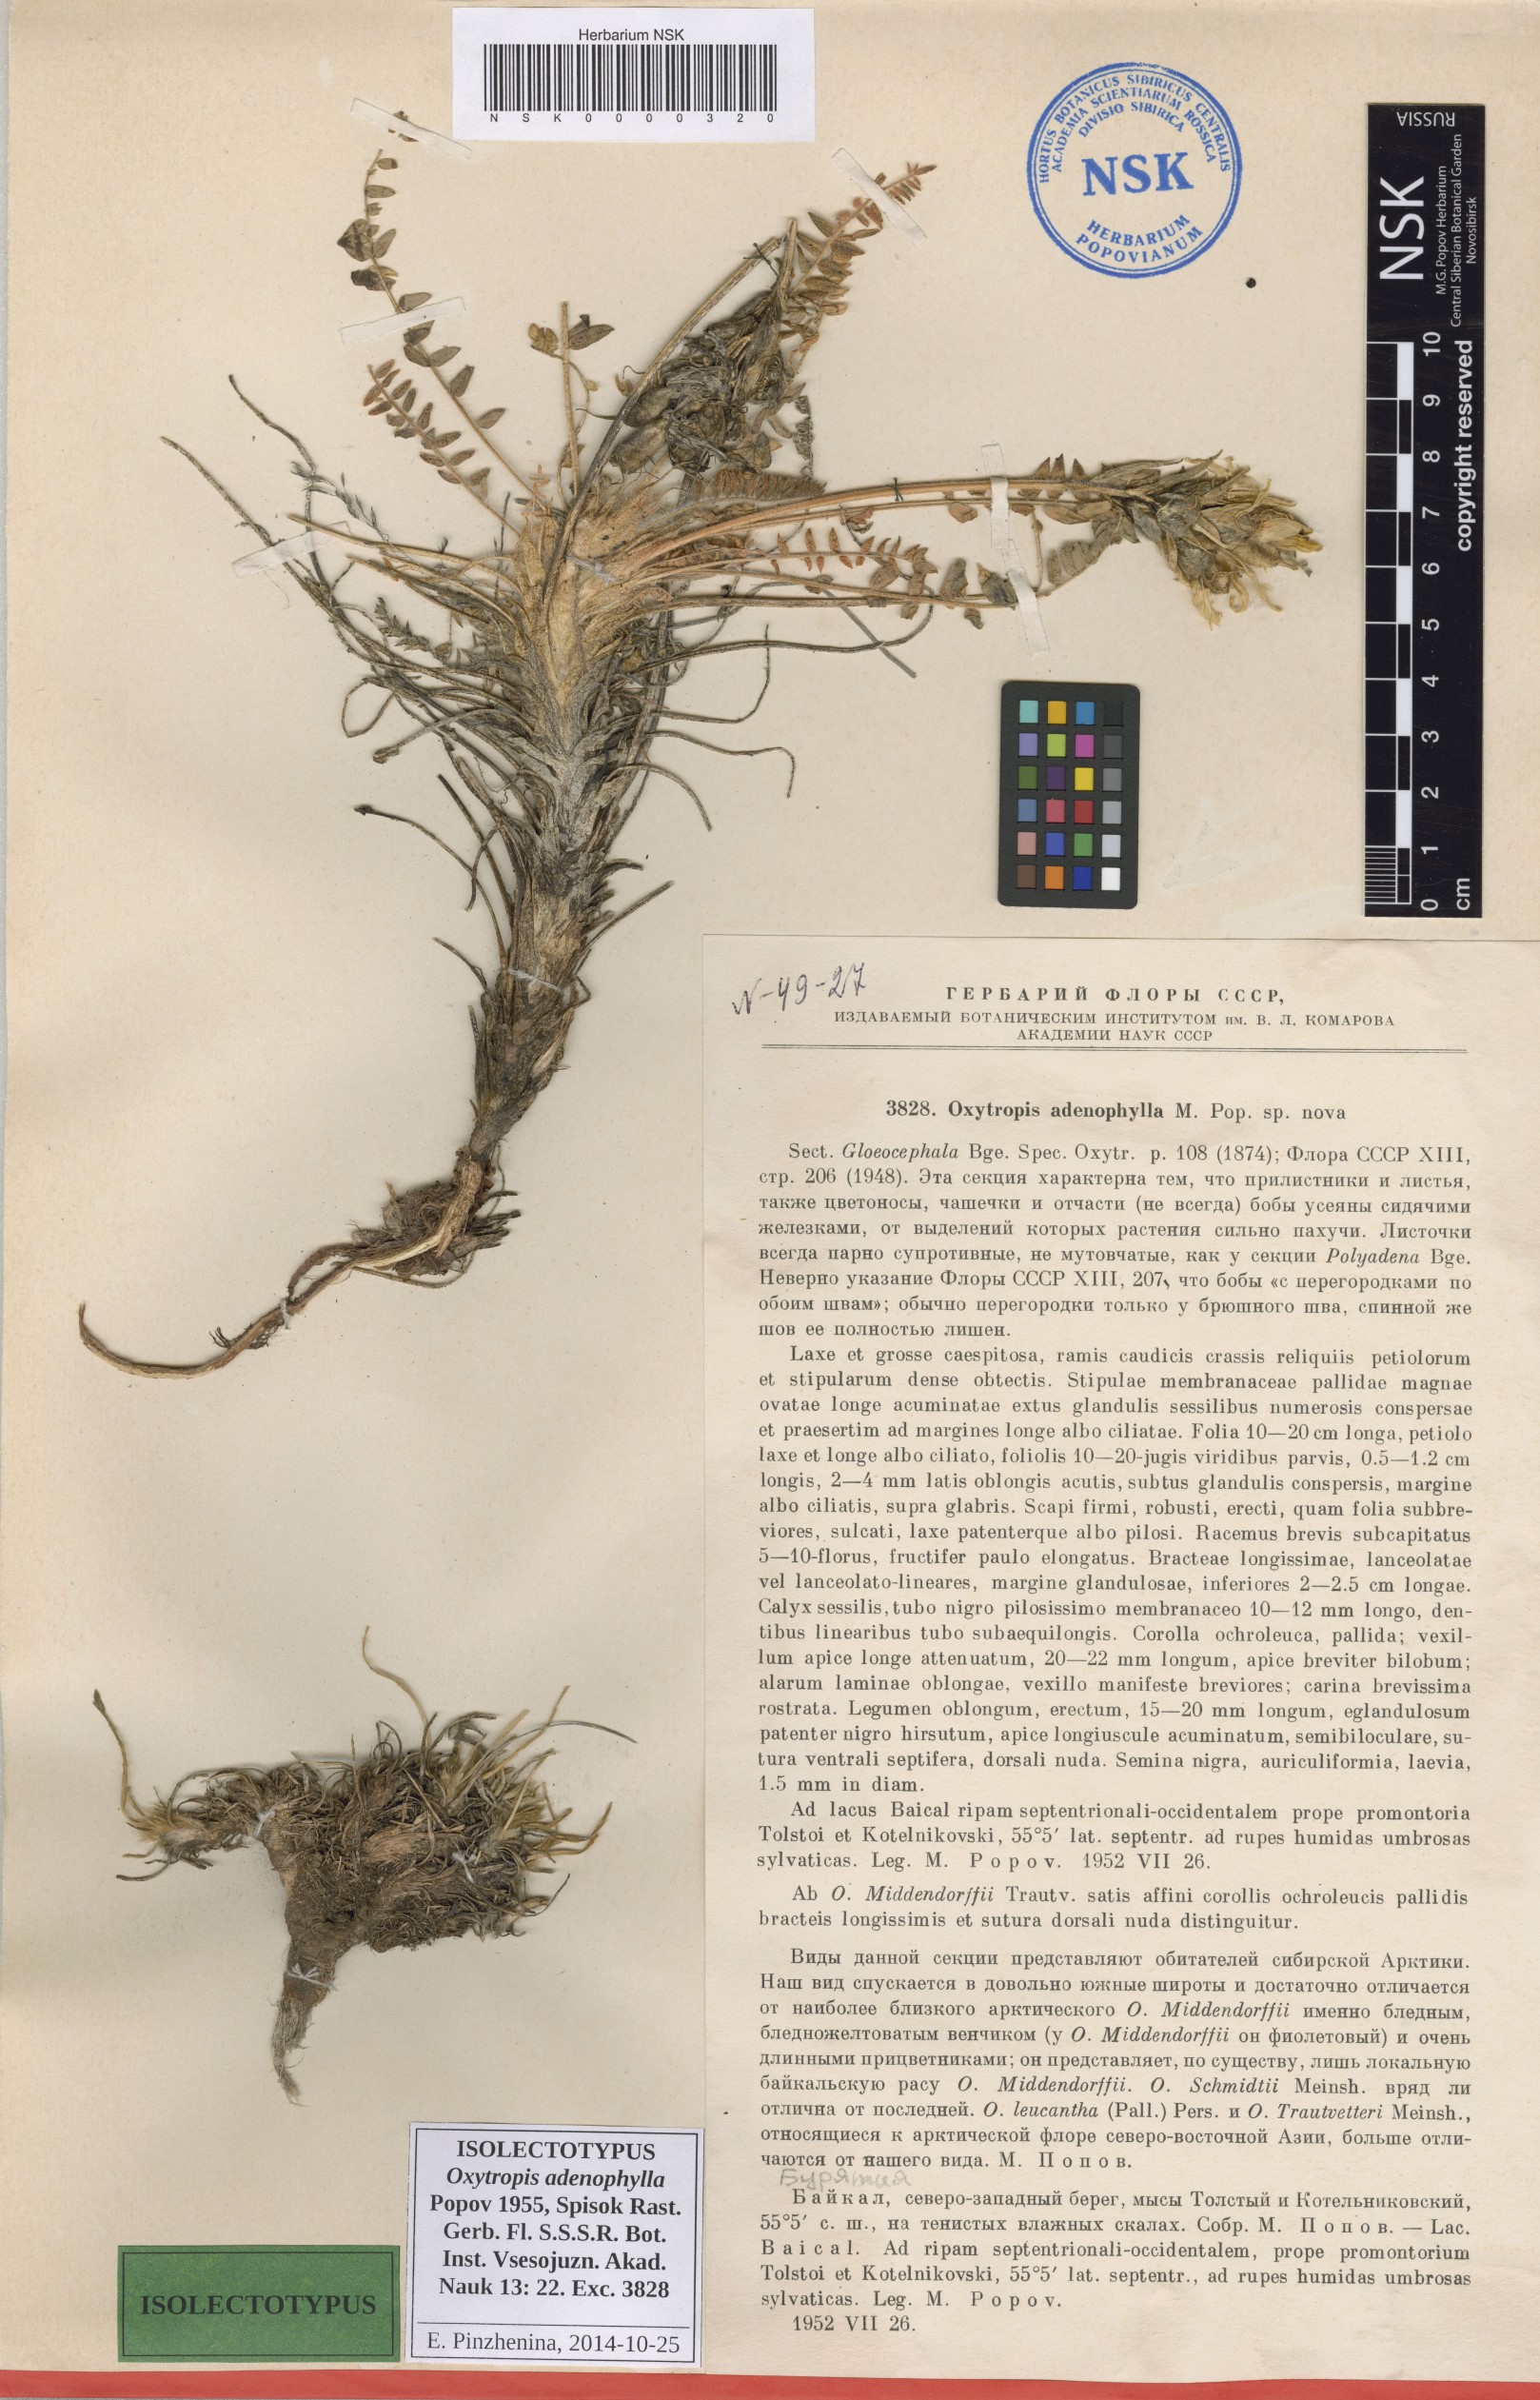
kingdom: Plantae
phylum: Tracheophyta
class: Magnoliopsida
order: Fabales
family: Fabaceae
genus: Oxytropis
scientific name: Oxytropis adenophylla
